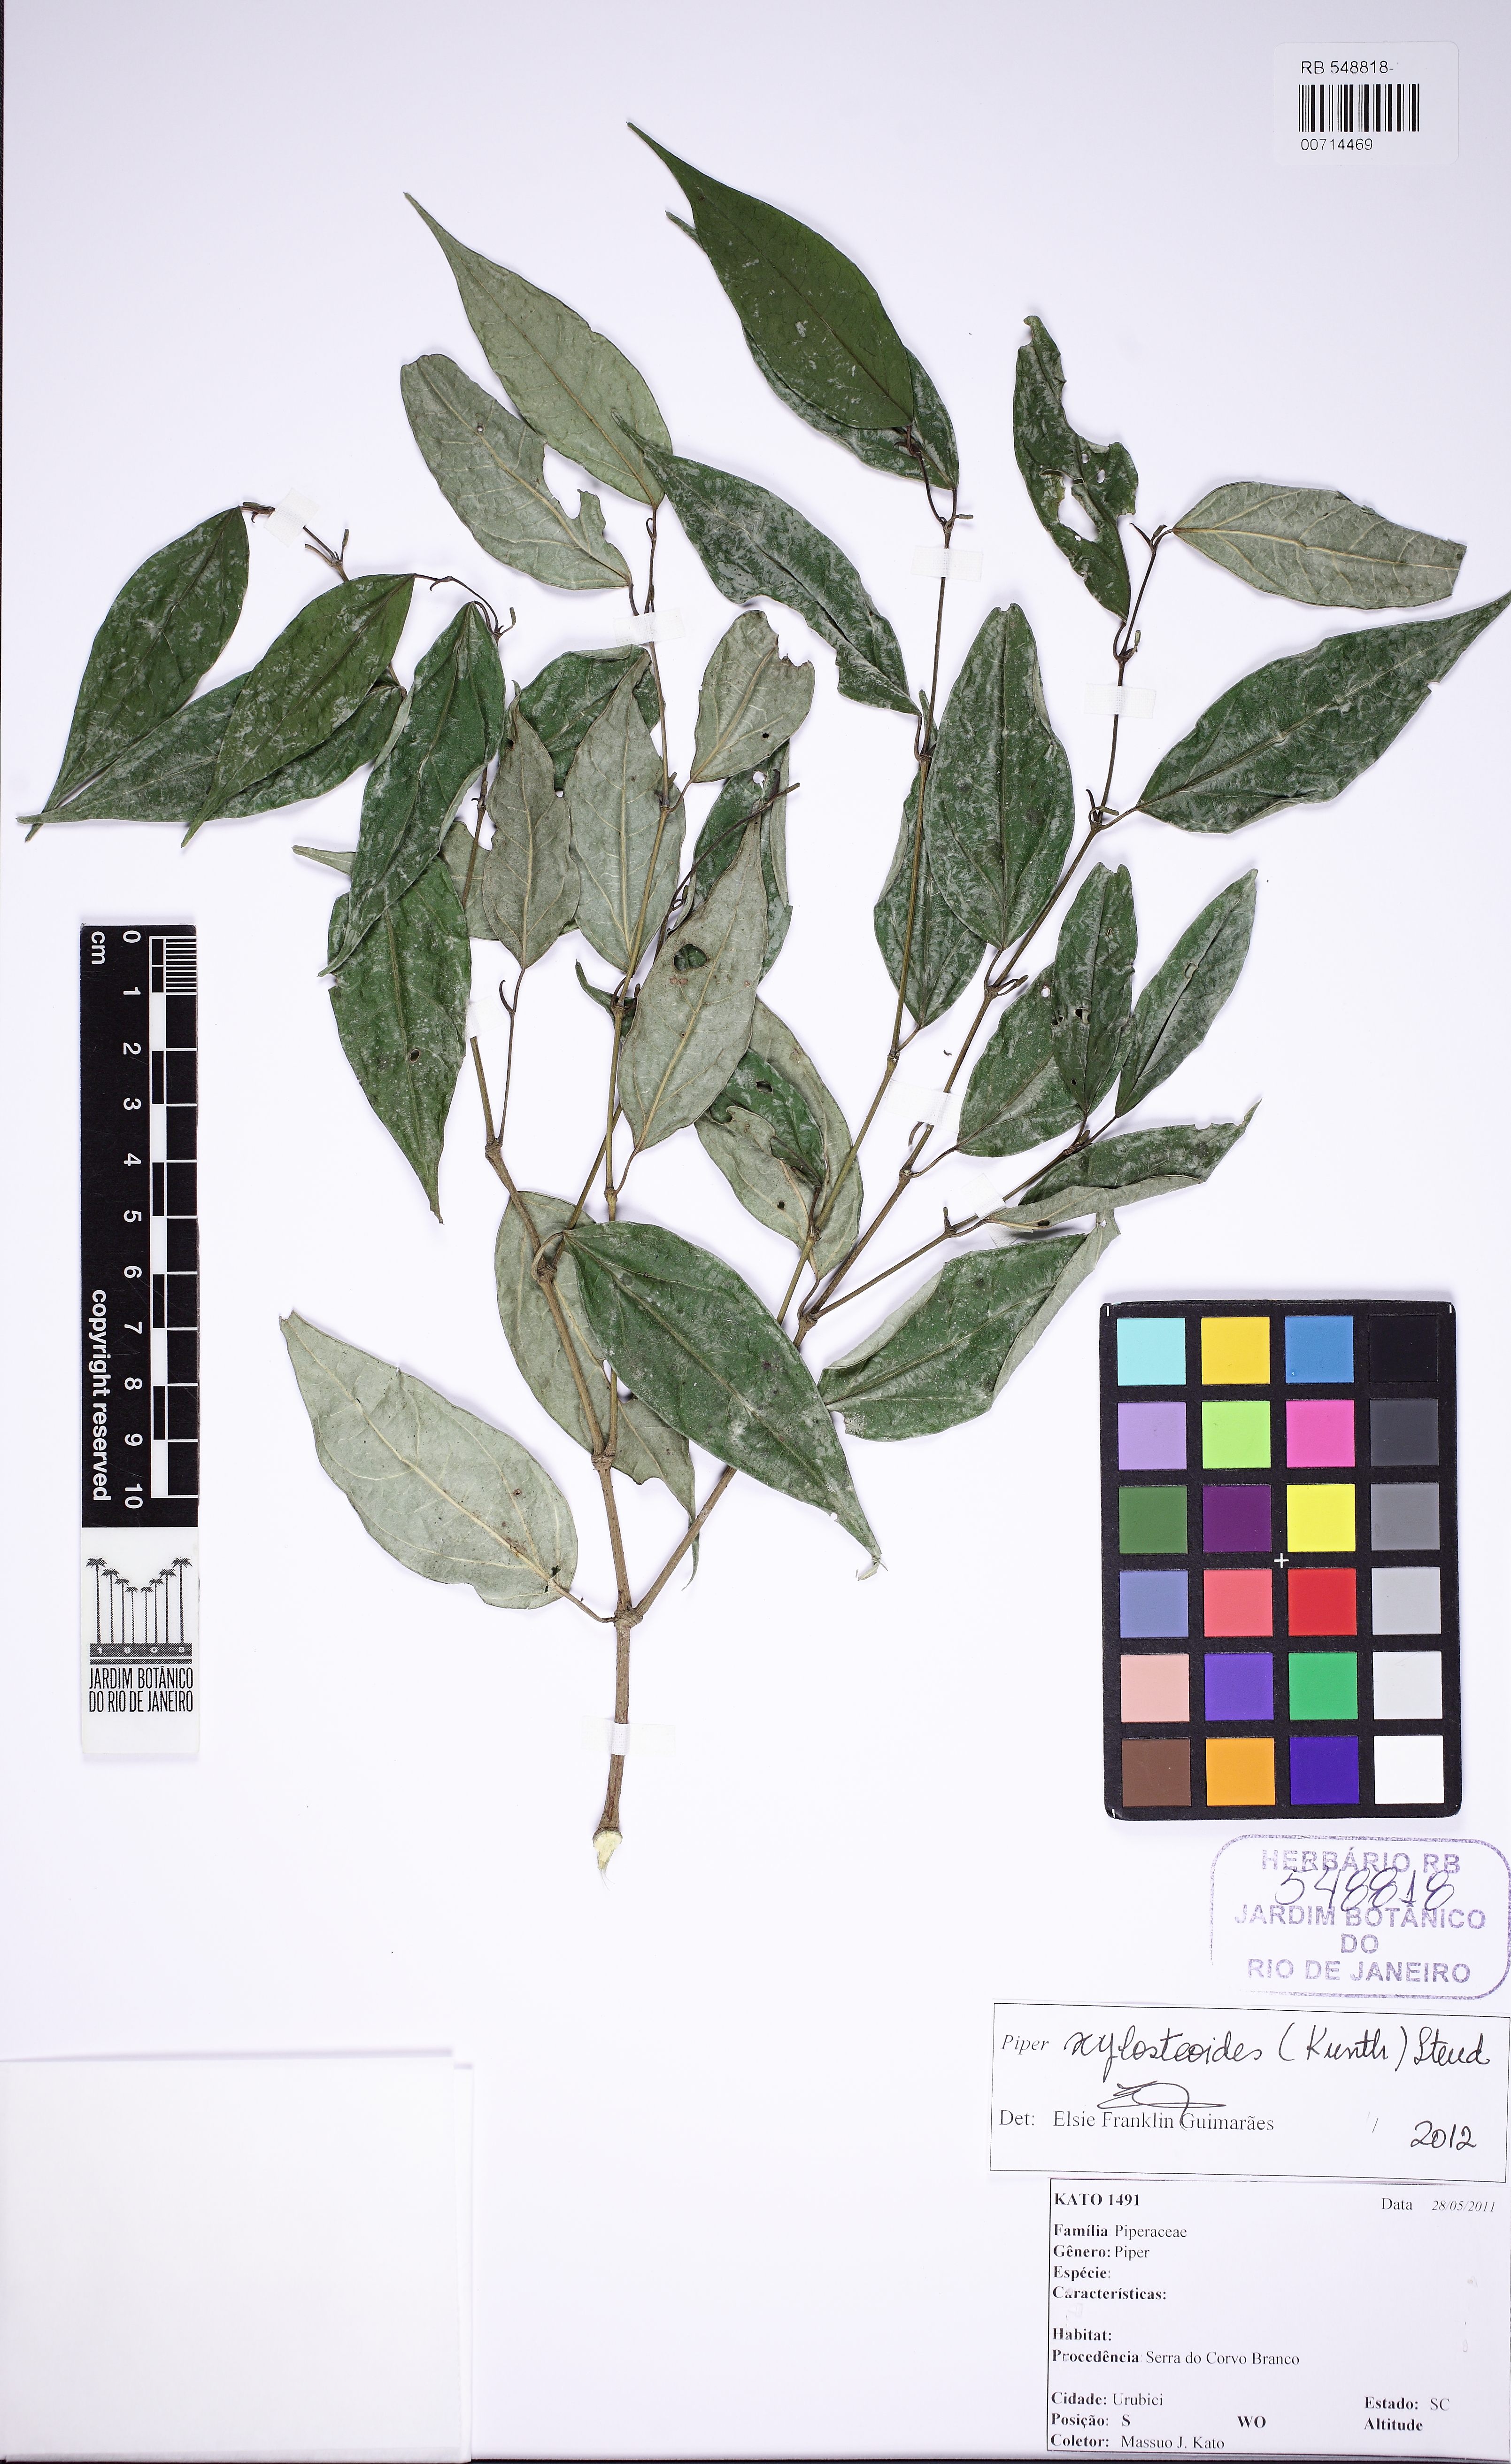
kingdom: Plantae
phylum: Tracheophyta
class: Magnoliopsida
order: Piperales
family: Piperaceae
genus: Piper
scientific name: Piper xylosteoides
